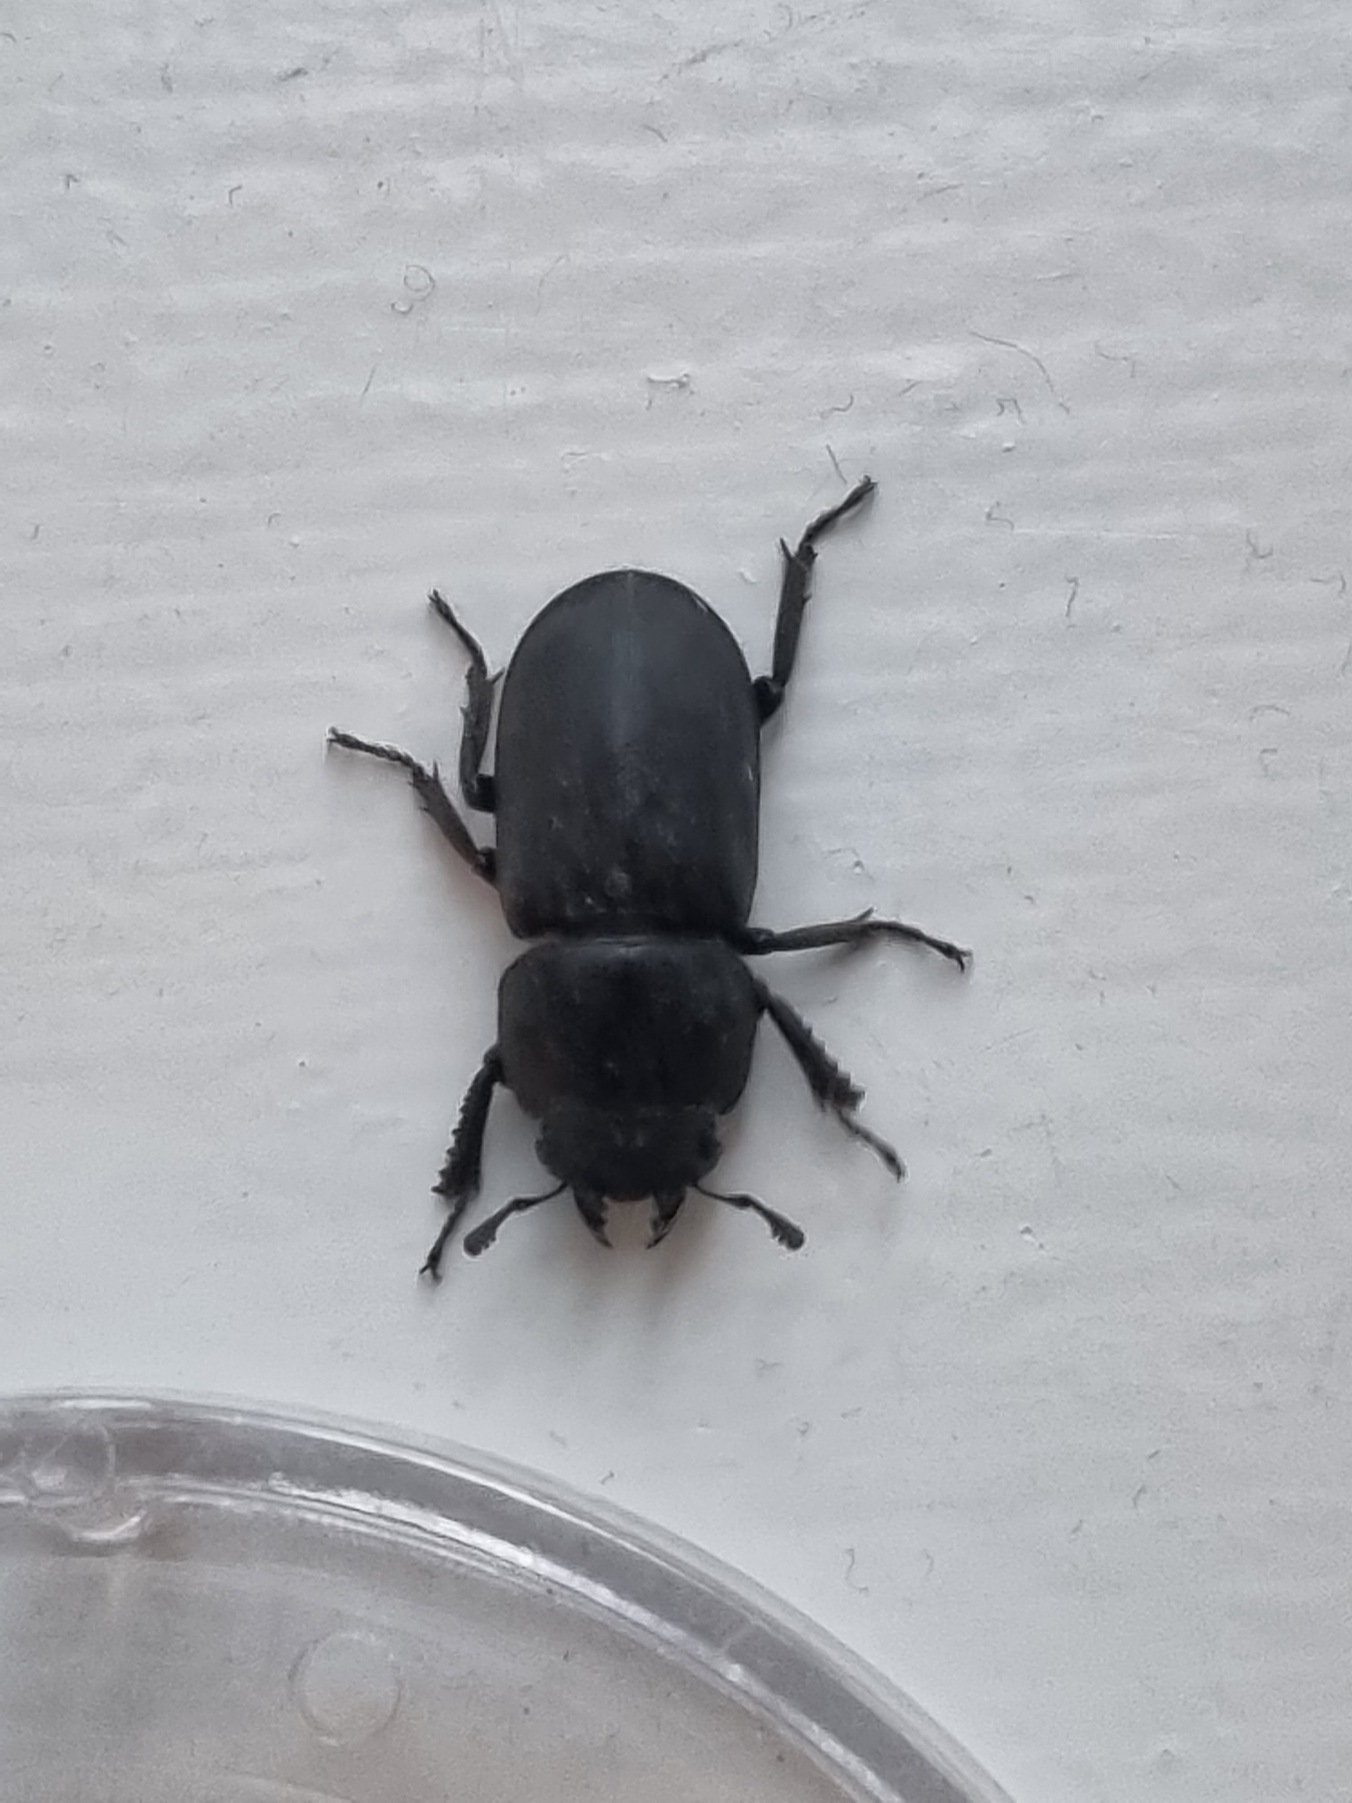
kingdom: Animalia
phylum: Arthropoda
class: Insecta
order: Coleoptera
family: Lucanidae
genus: Dorcus
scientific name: Dorcus parallelipipedus
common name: Bøghjort
